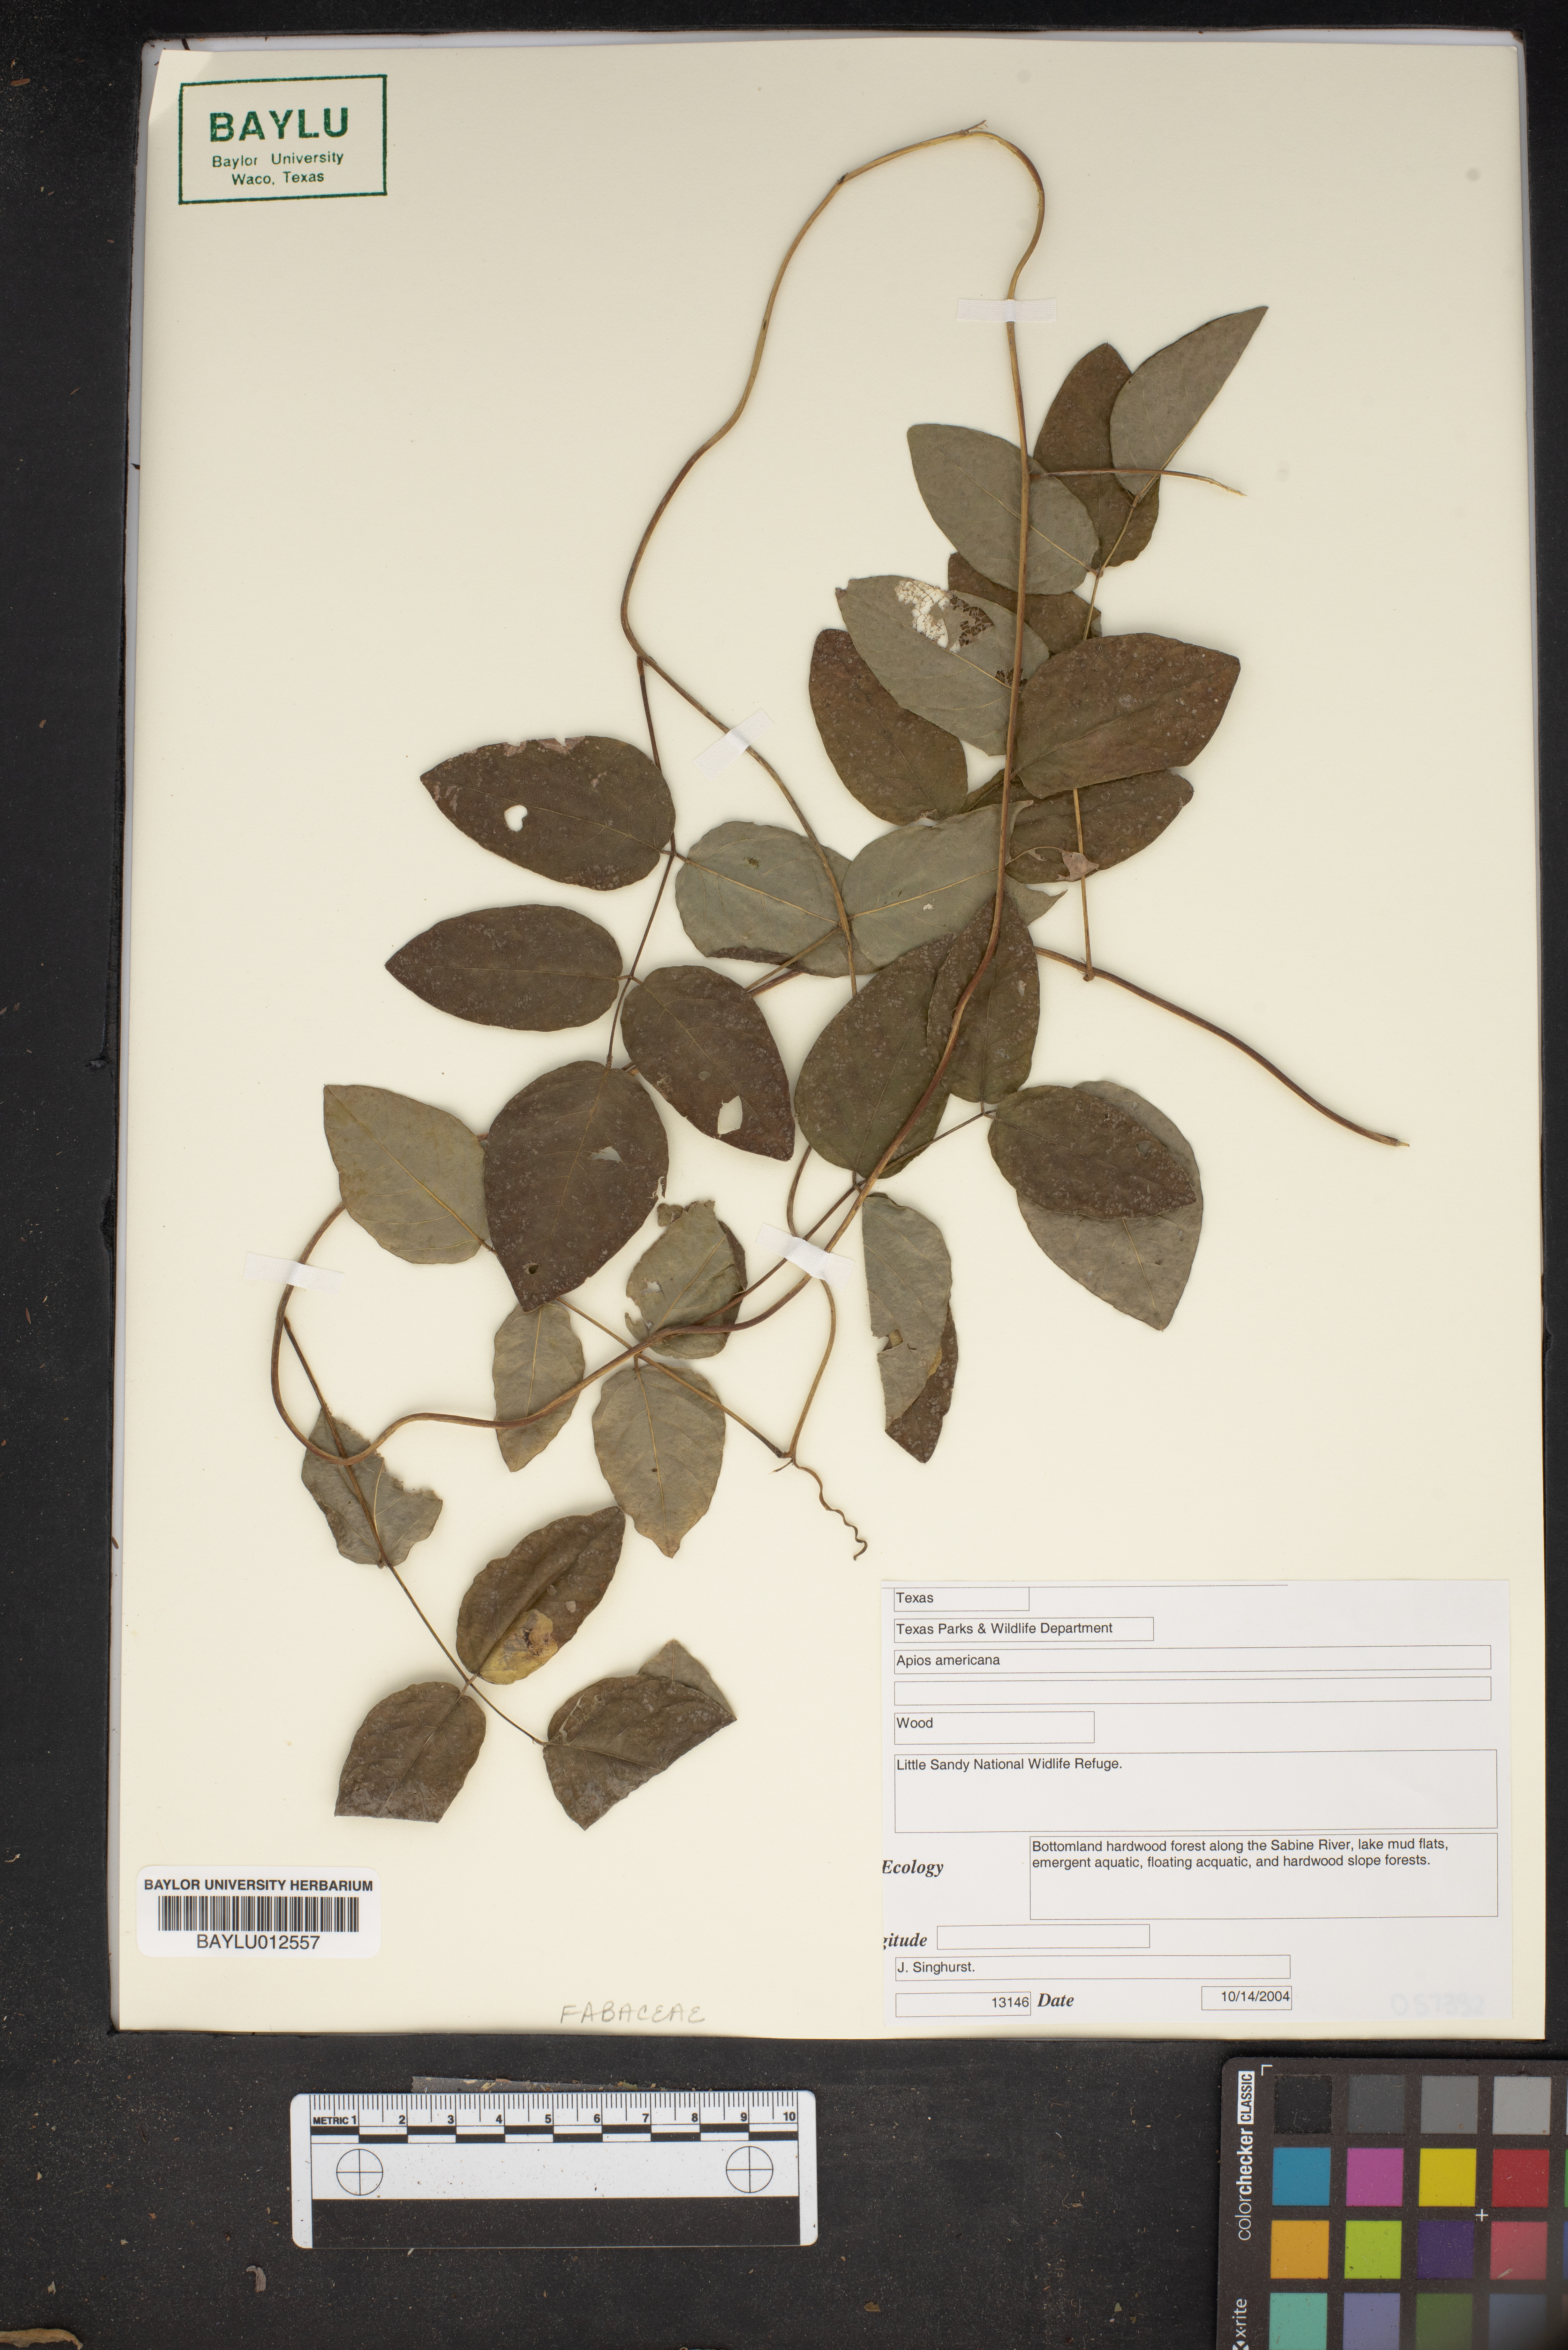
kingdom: Plantae
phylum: Tracheophyta
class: Magnoliopsida
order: Fabales
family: Fabaceae
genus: Apios
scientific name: Apios americana
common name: American potato-bean
